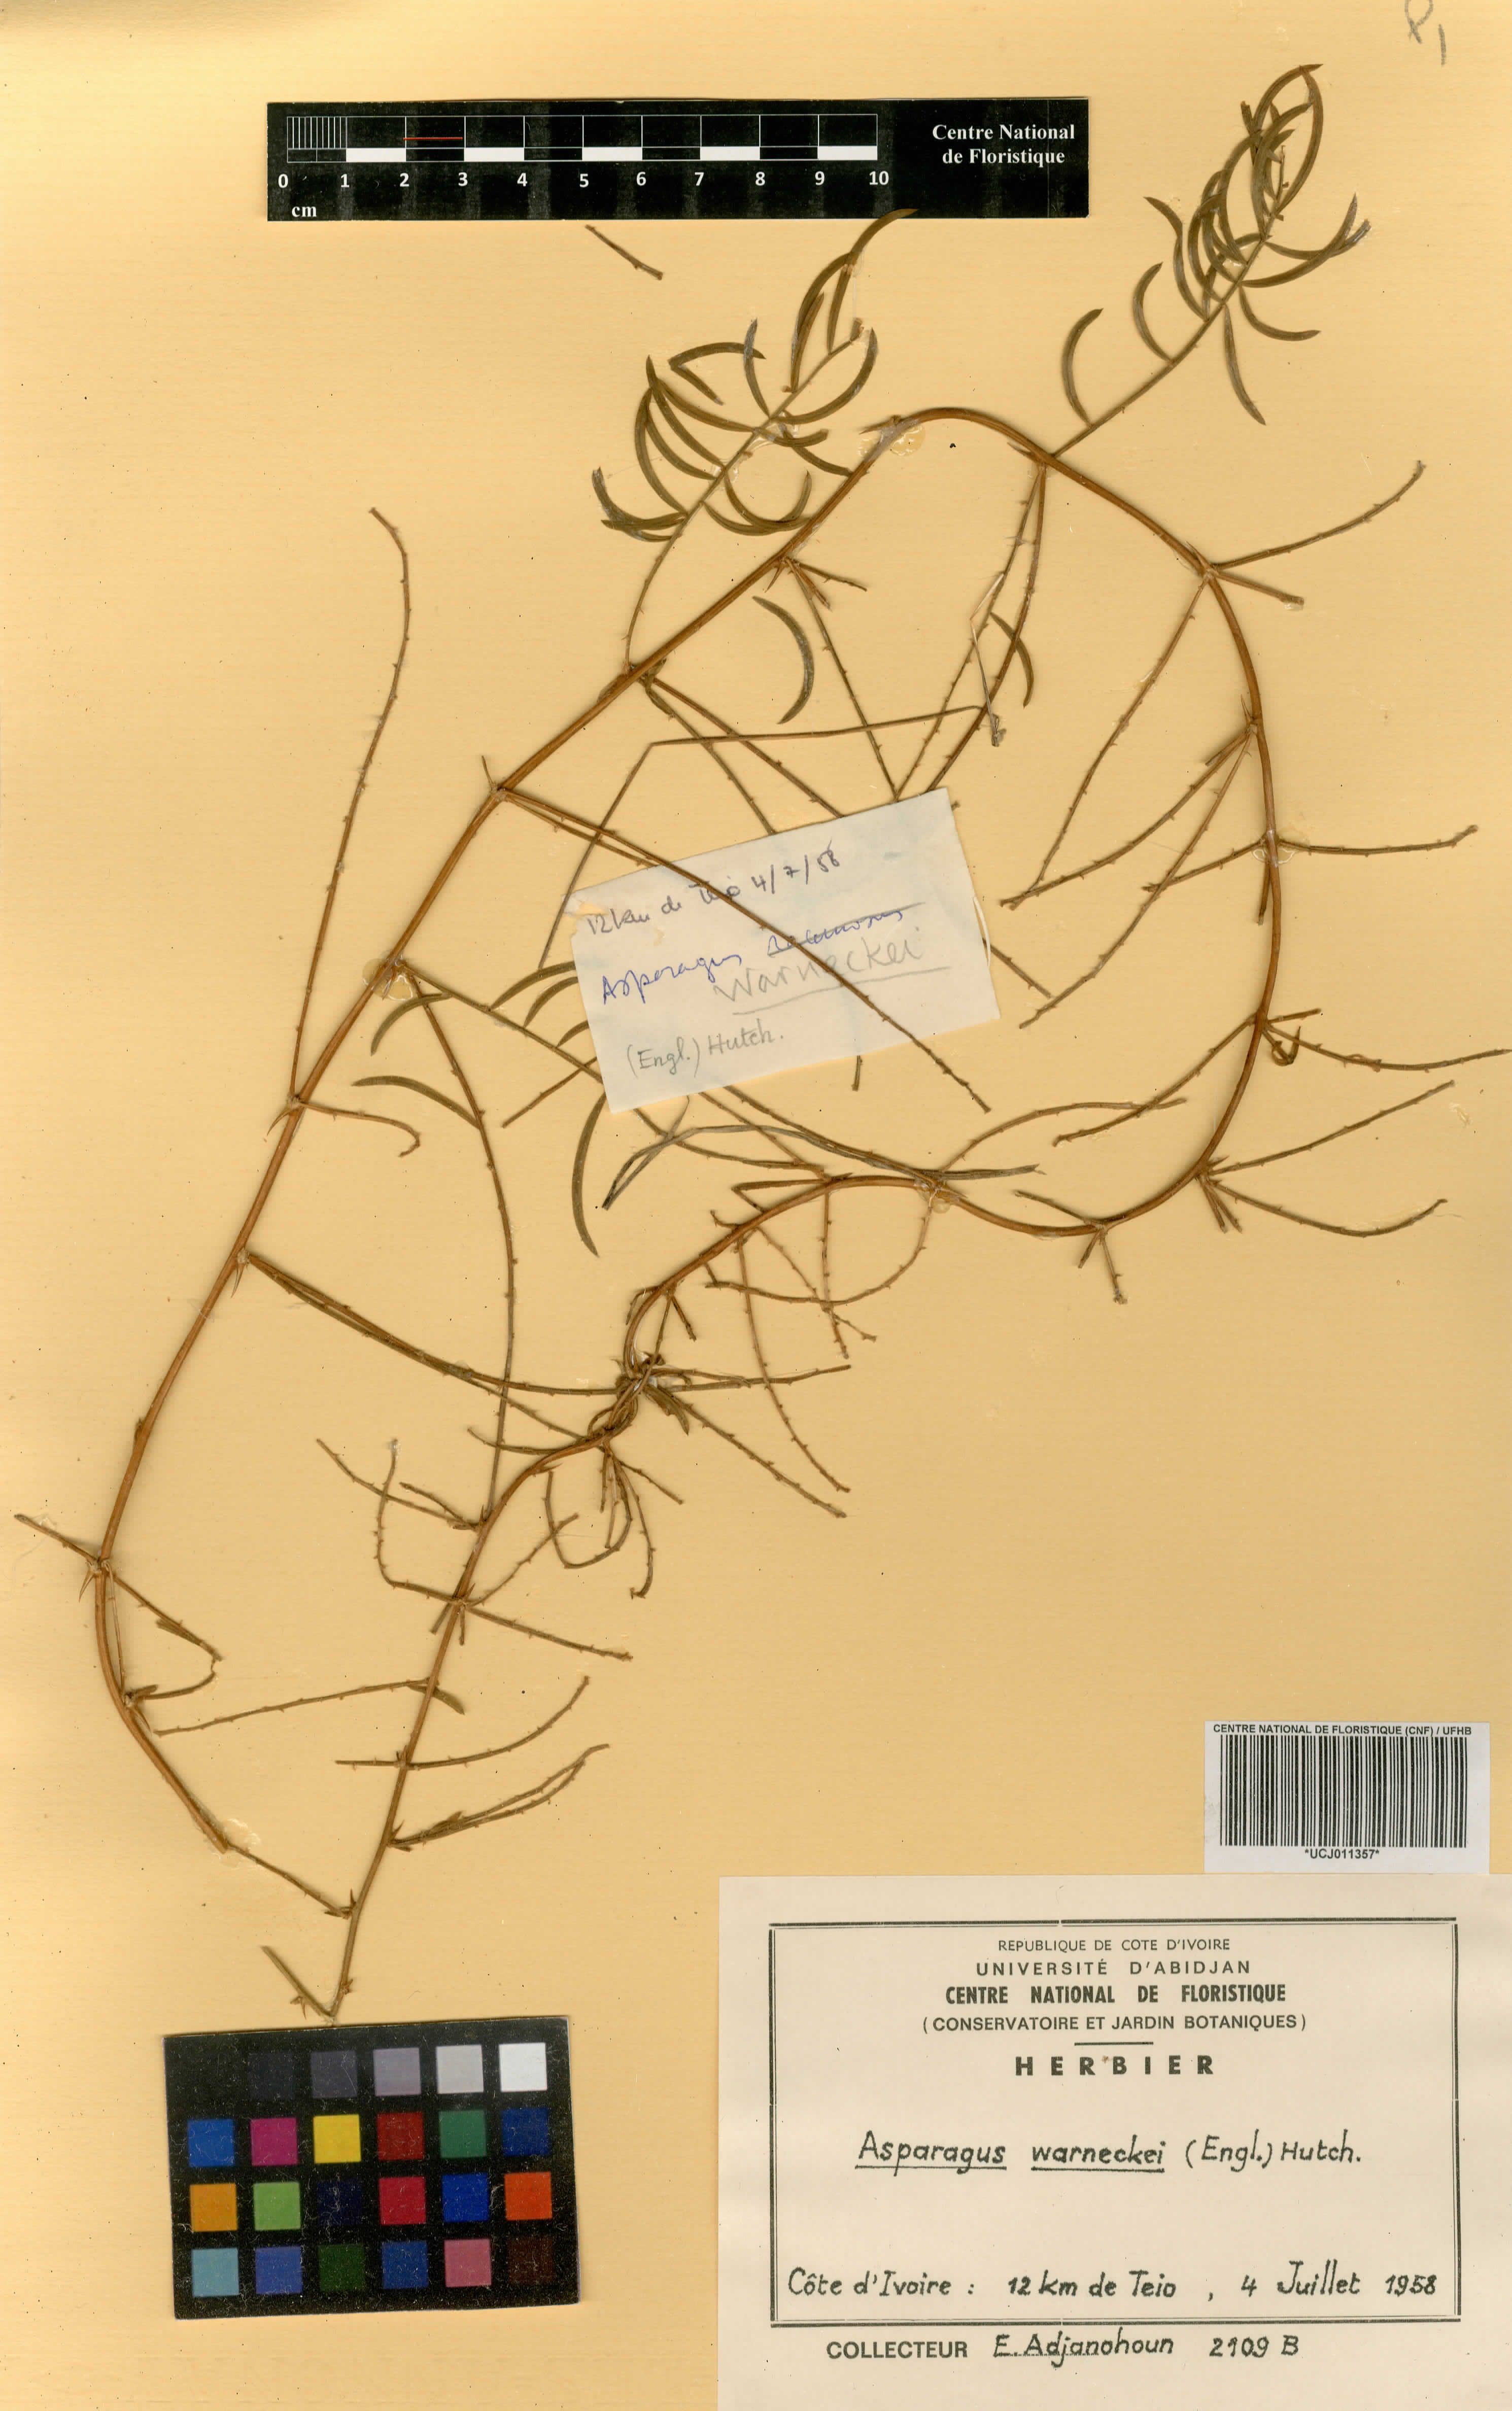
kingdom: Plantae
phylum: Tracheophyta
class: Liliopsida
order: Asparagales
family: Asparagaceae
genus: Asparagus
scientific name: Asparagus warneckei
